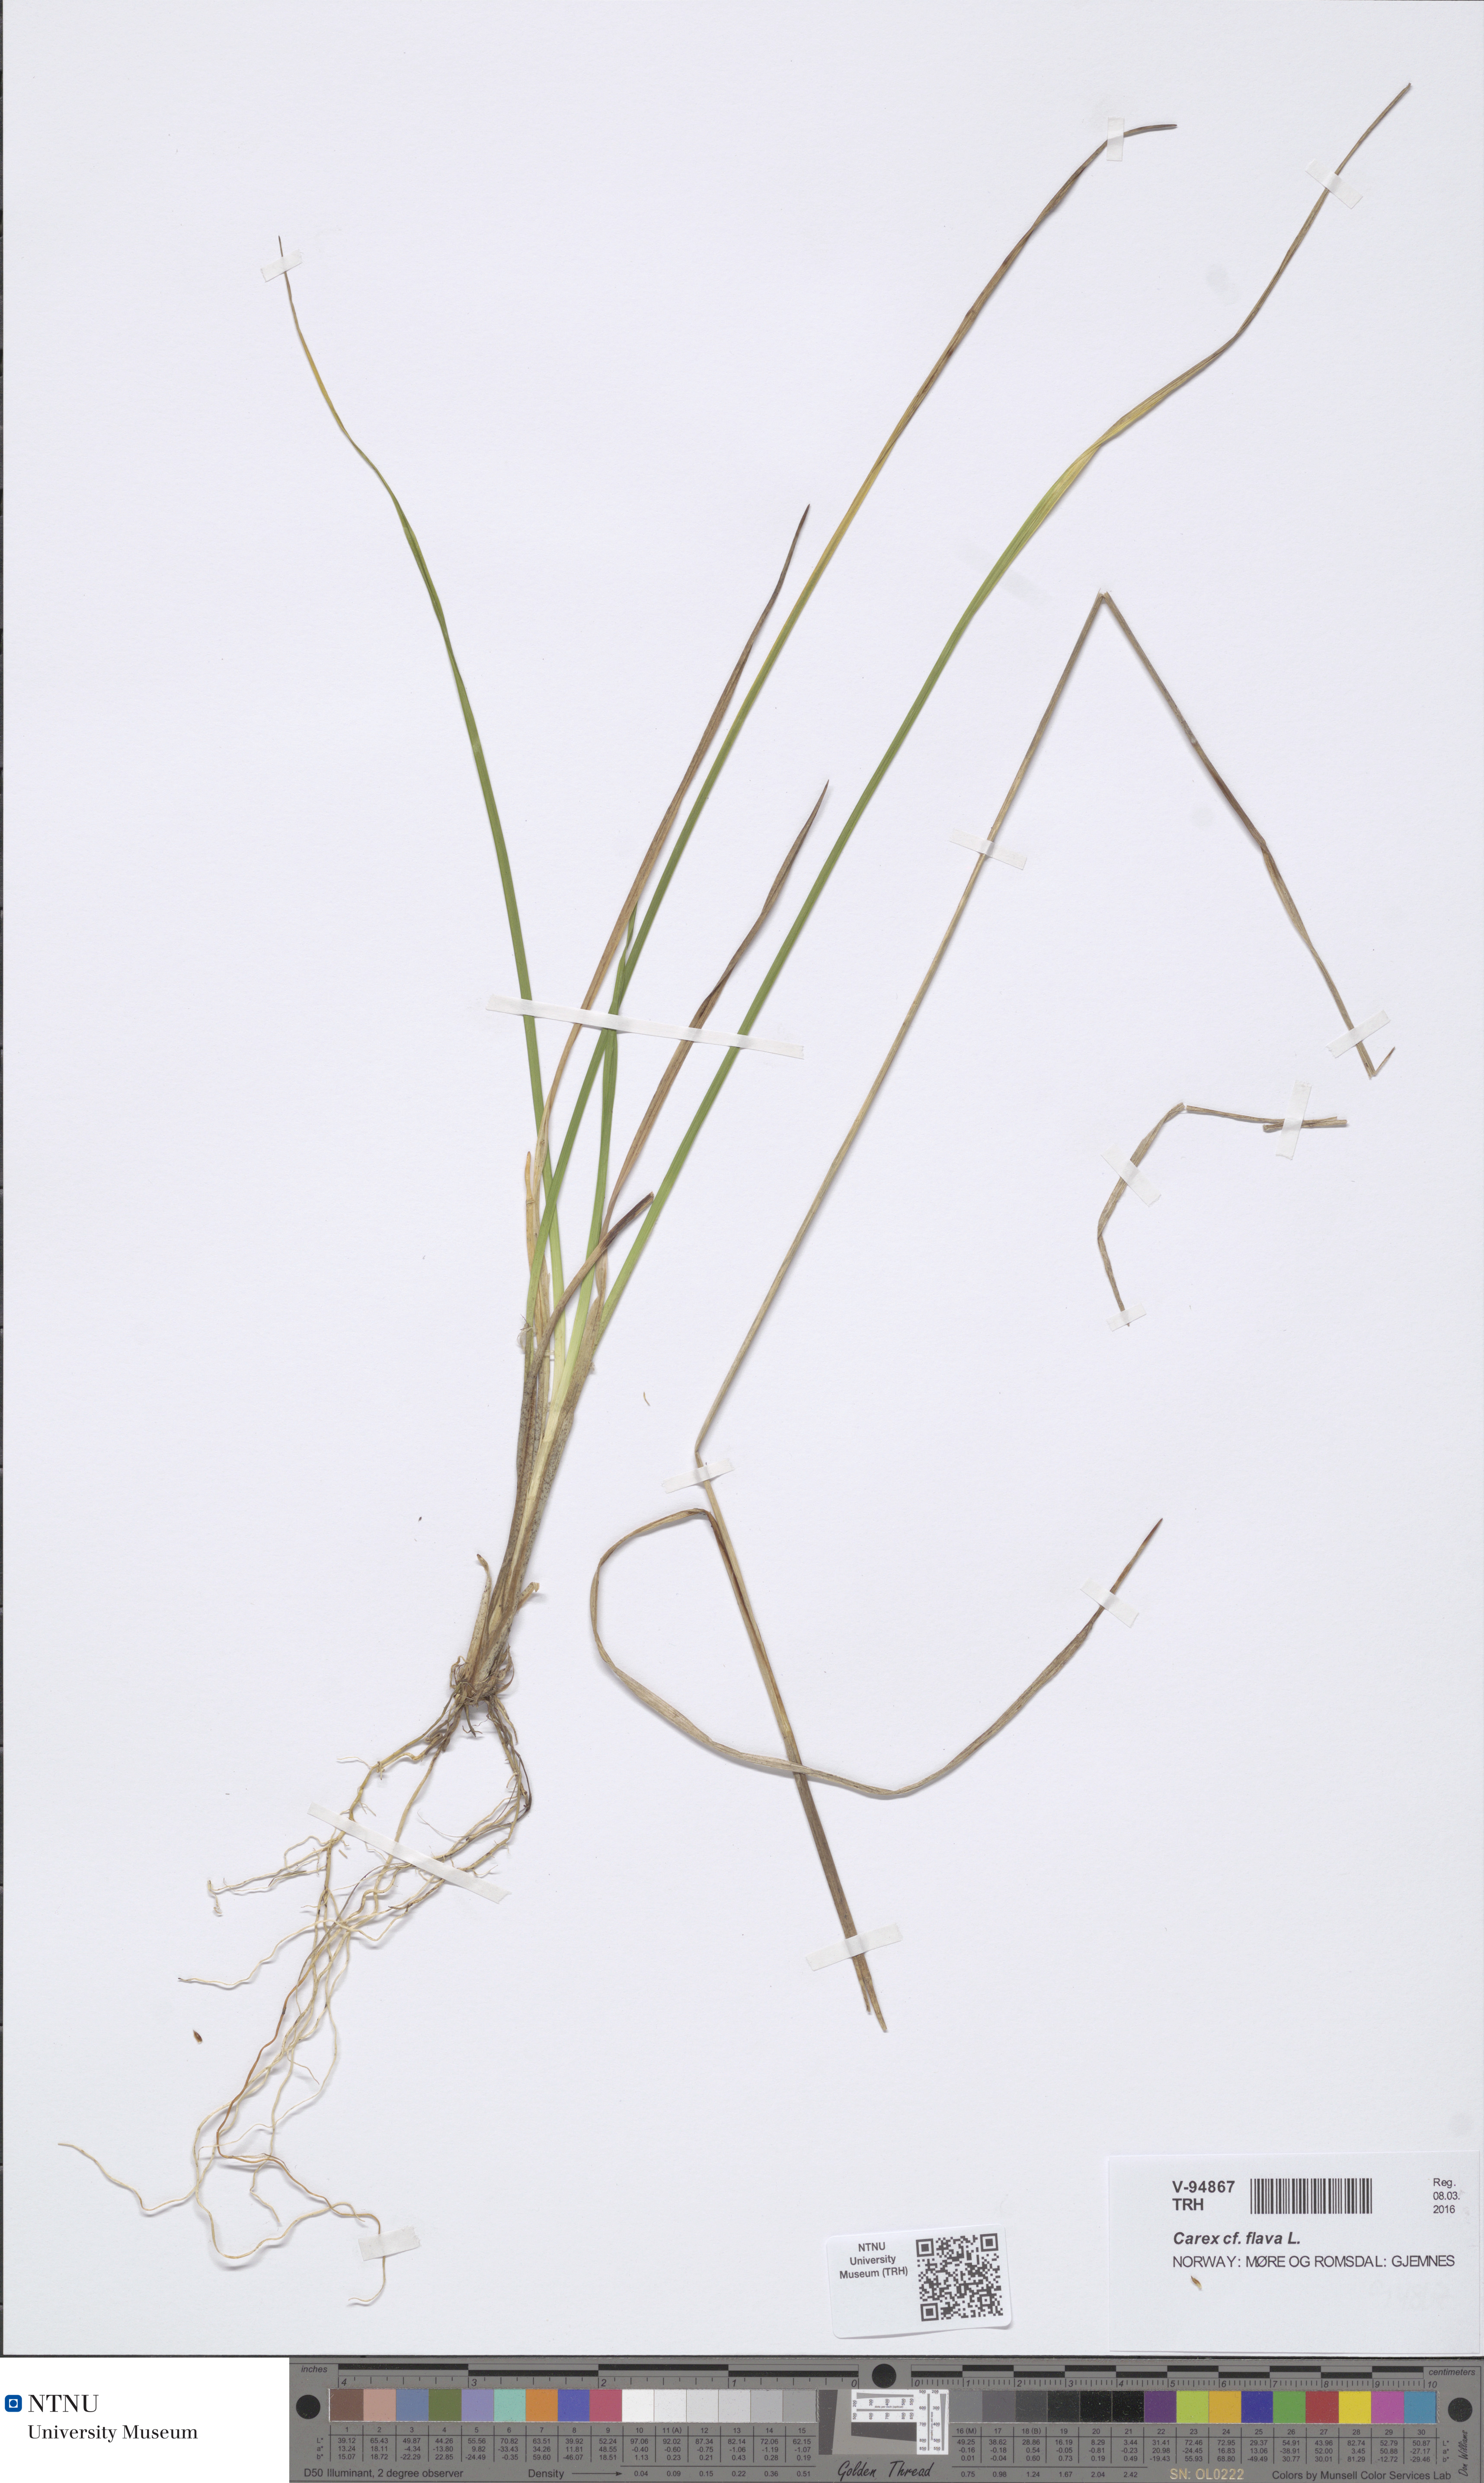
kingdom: Plantae
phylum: Tracheophyta
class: Liliopsida
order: Poales
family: Cyperaceae
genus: Carex
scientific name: Carex flava
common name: Large yellow-sedge
